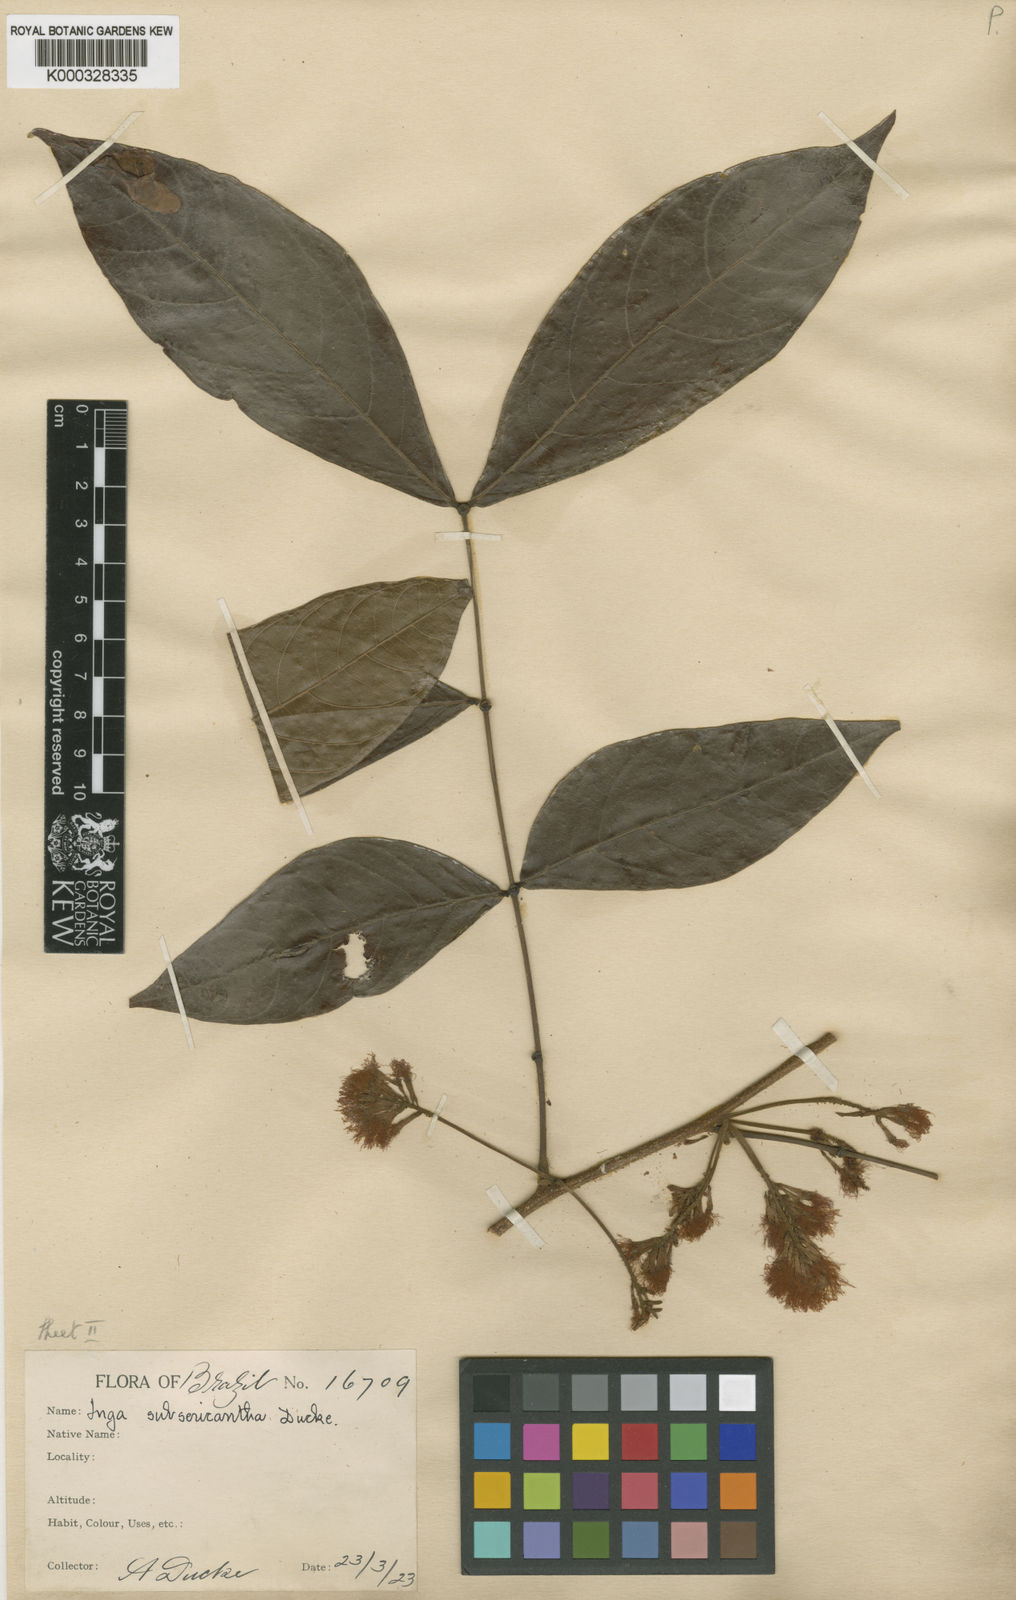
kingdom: Plantae
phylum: Tracheophyta
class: Magnoliopsida
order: Fabales
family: Fabaceae
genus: Inga
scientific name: Inga pezizifera
